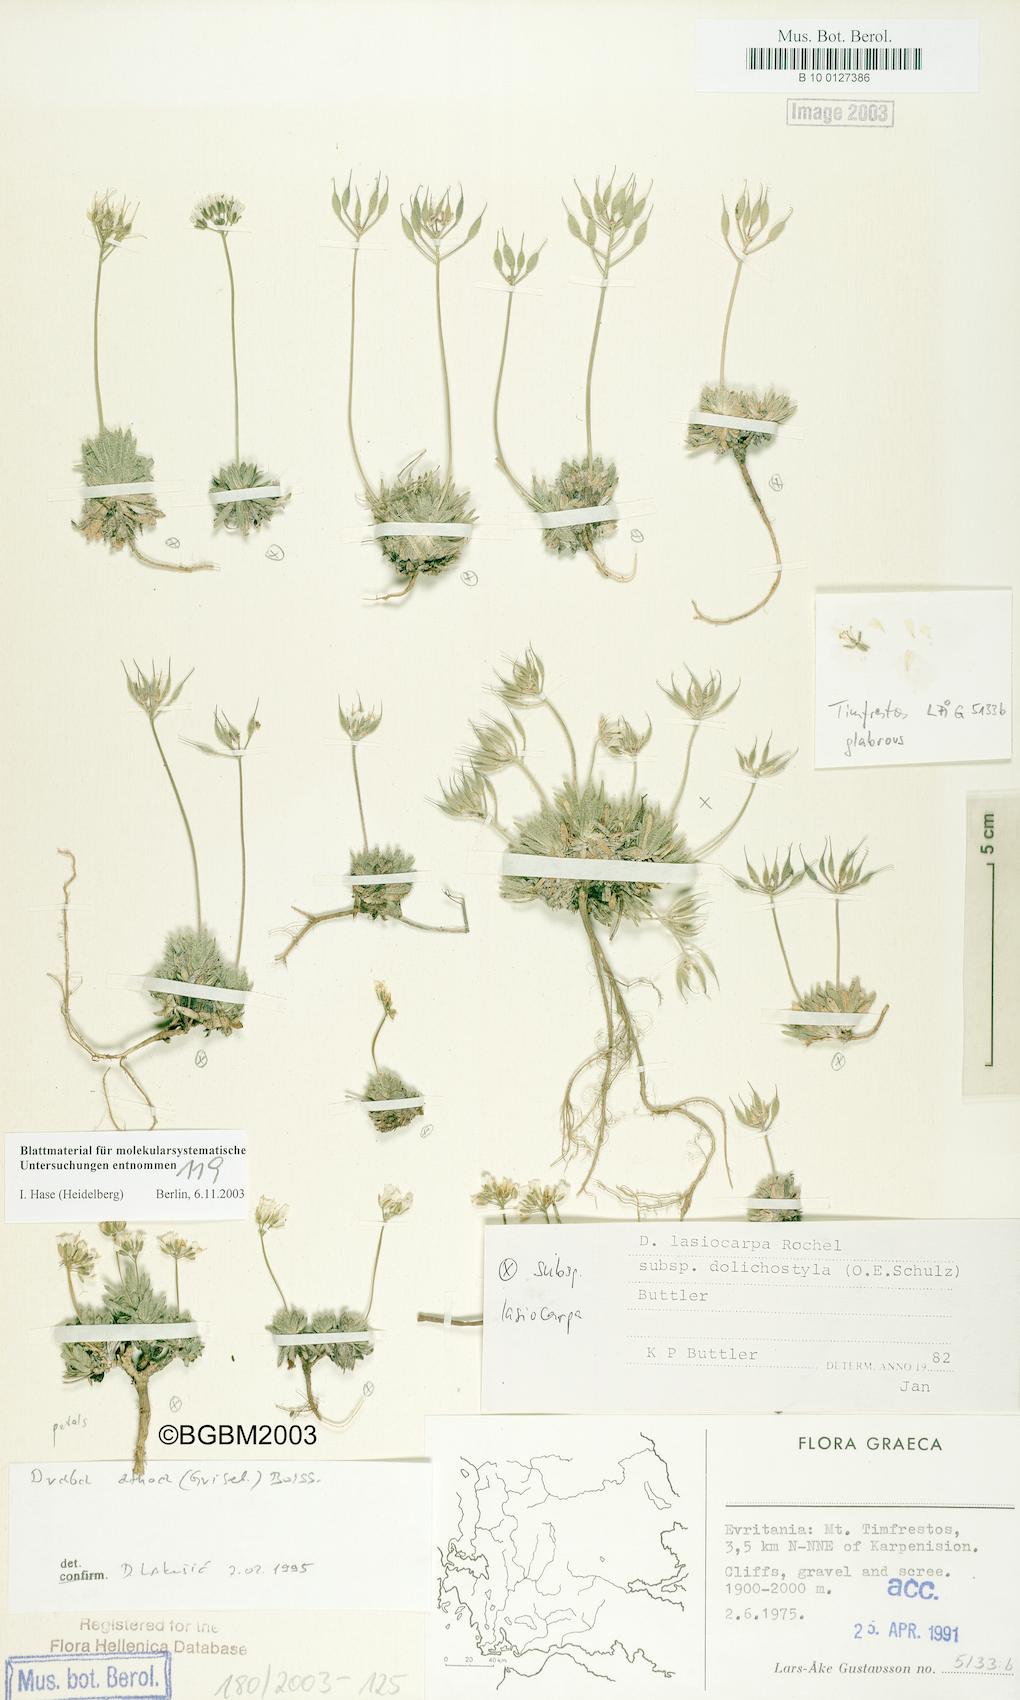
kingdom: Plantae
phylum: Tracheophyta
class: Magnoliopsida
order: Brassicales
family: Brassicaceae
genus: Draba
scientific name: Draba lasiocarpa
